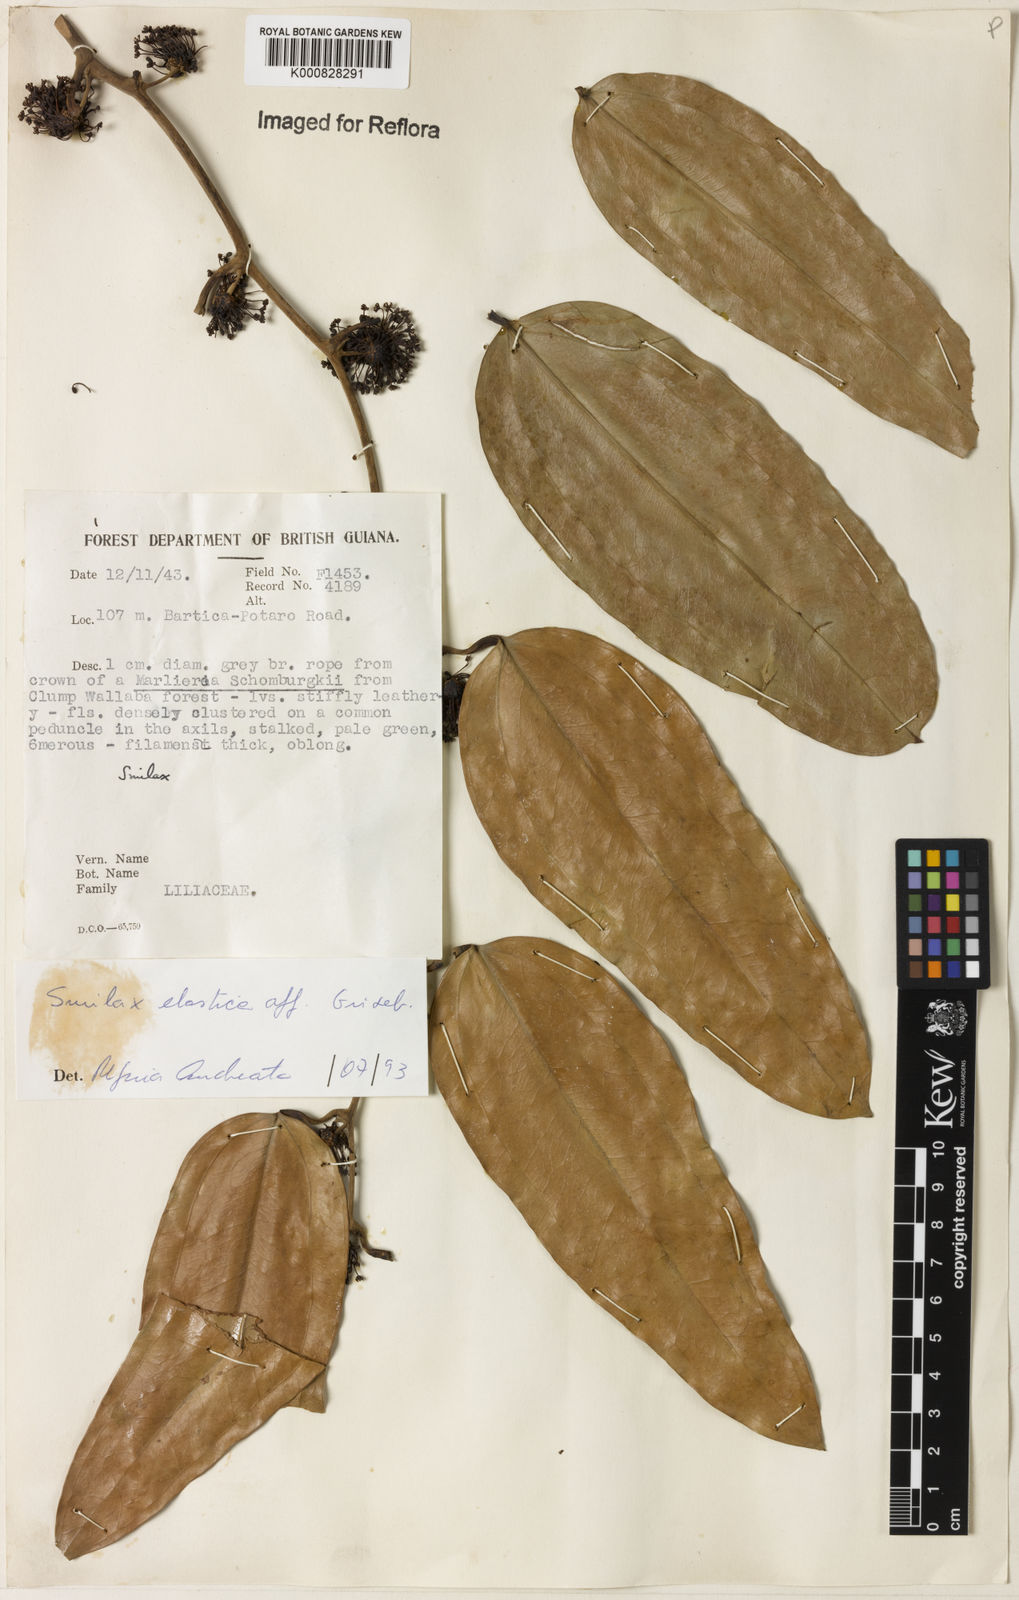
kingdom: Plantae
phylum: Tracheophyta
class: Liliopsida
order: Liliales
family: Smilacaceae
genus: Smilax
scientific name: Smilax elastica
